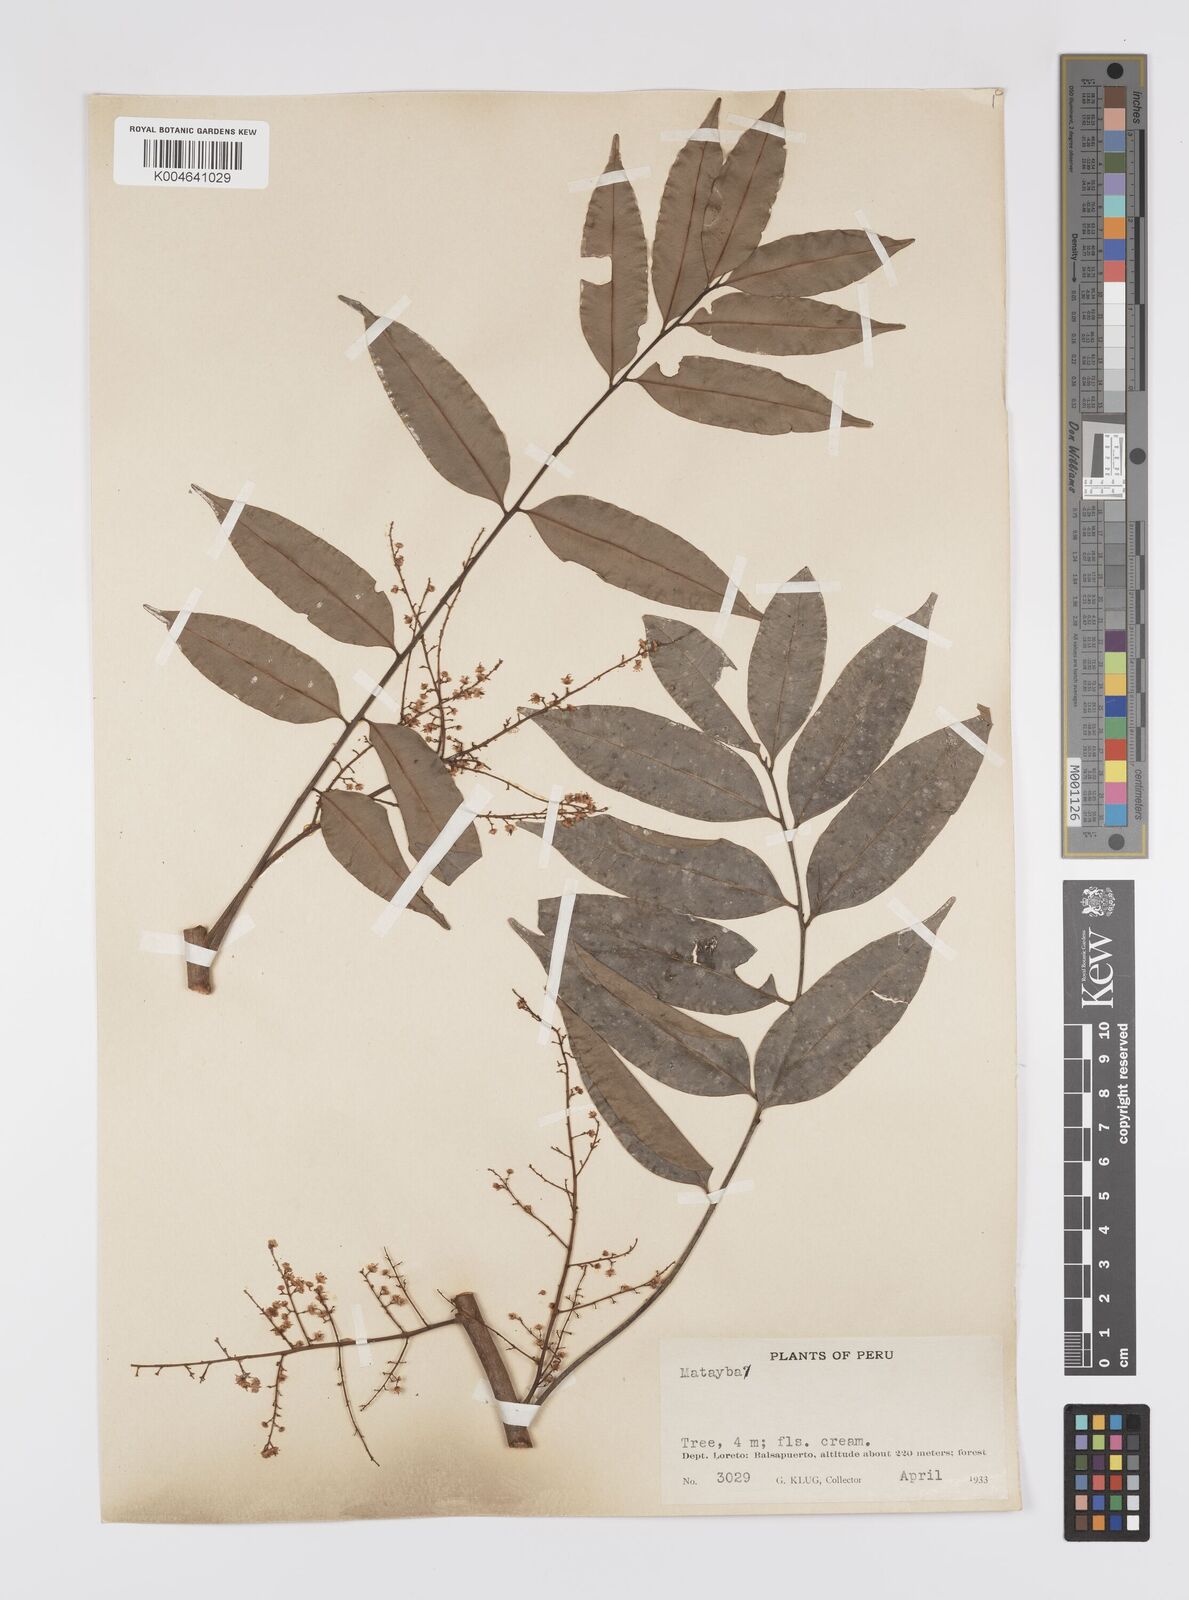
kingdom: Plantae
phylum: Tracheophyta
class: Magnoliopsida
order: Sapindales
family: Sapindaceae
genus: Matayba
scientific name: Matayba peruviana
